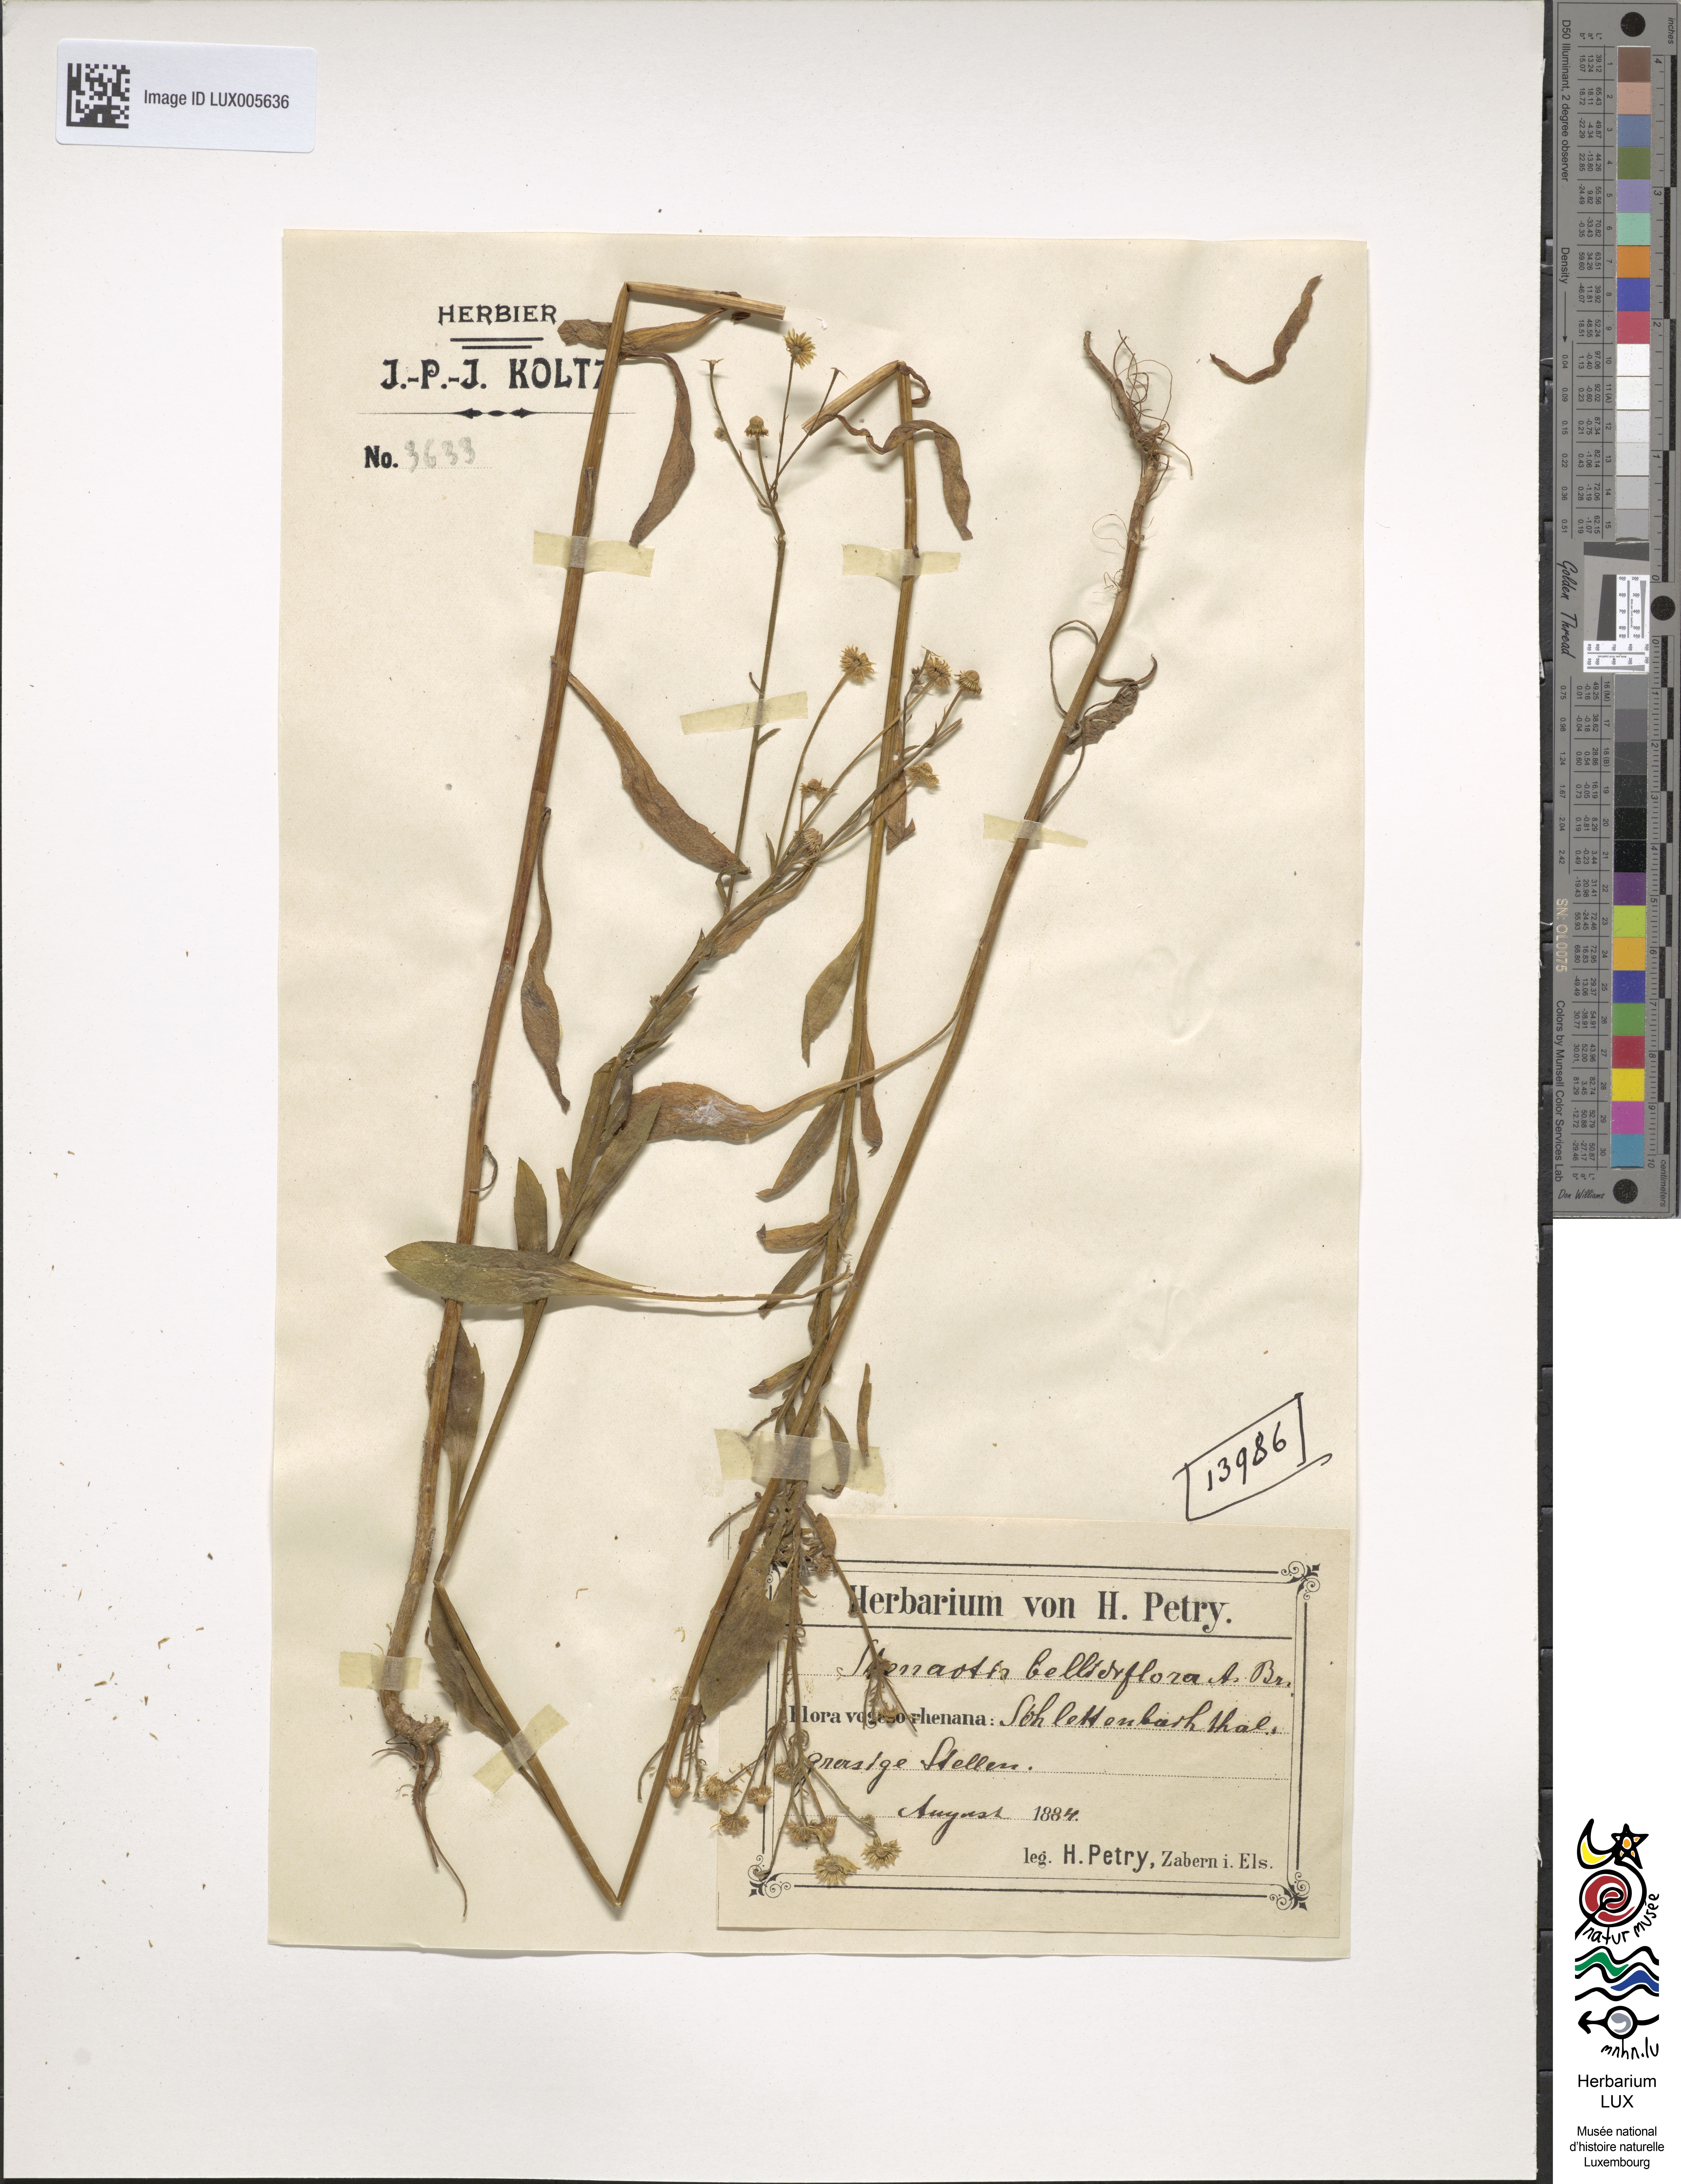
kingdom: Plantae
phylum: Tracheophyta
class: Magnoliopsida
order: Asterales
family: Asteraceae
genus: Erigeron
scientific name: Erigeron annuus
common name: Tall fleabane
